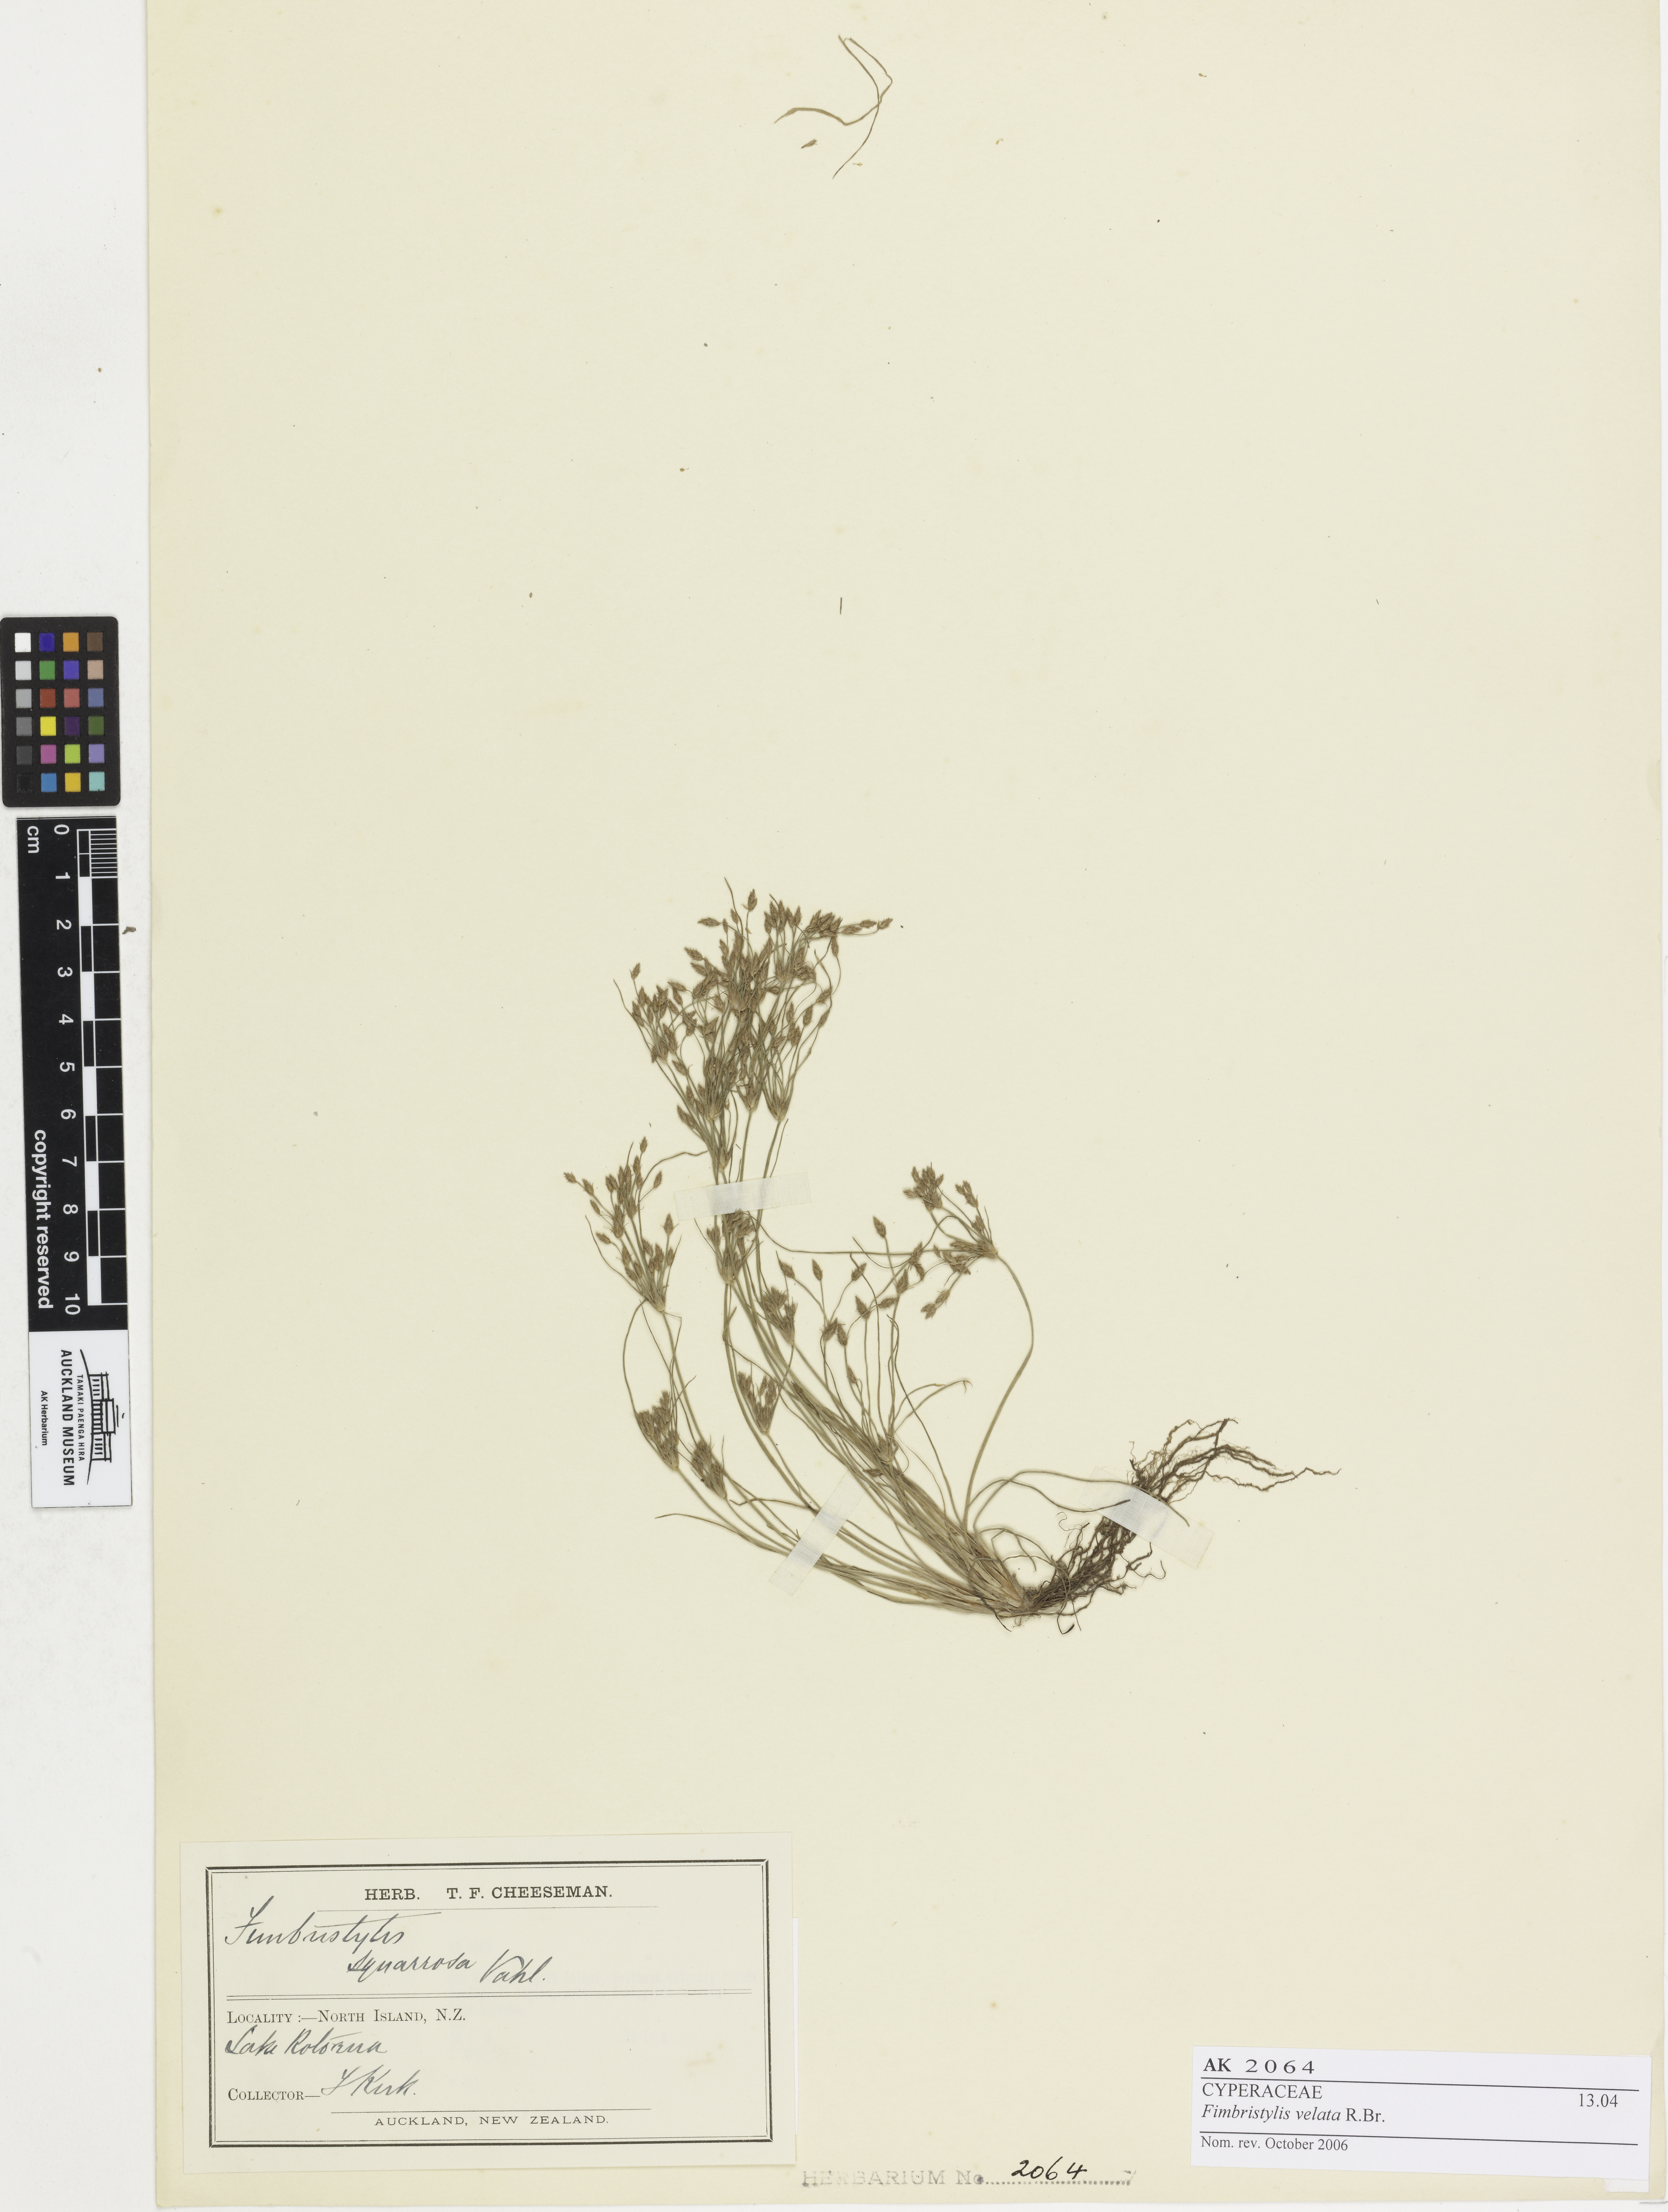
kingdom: Plantae
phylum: Tracheophyta
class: Liliopsida
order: Poales
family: Cyperaceae
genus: Fimbristylis
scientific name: Fimbristylis velata
